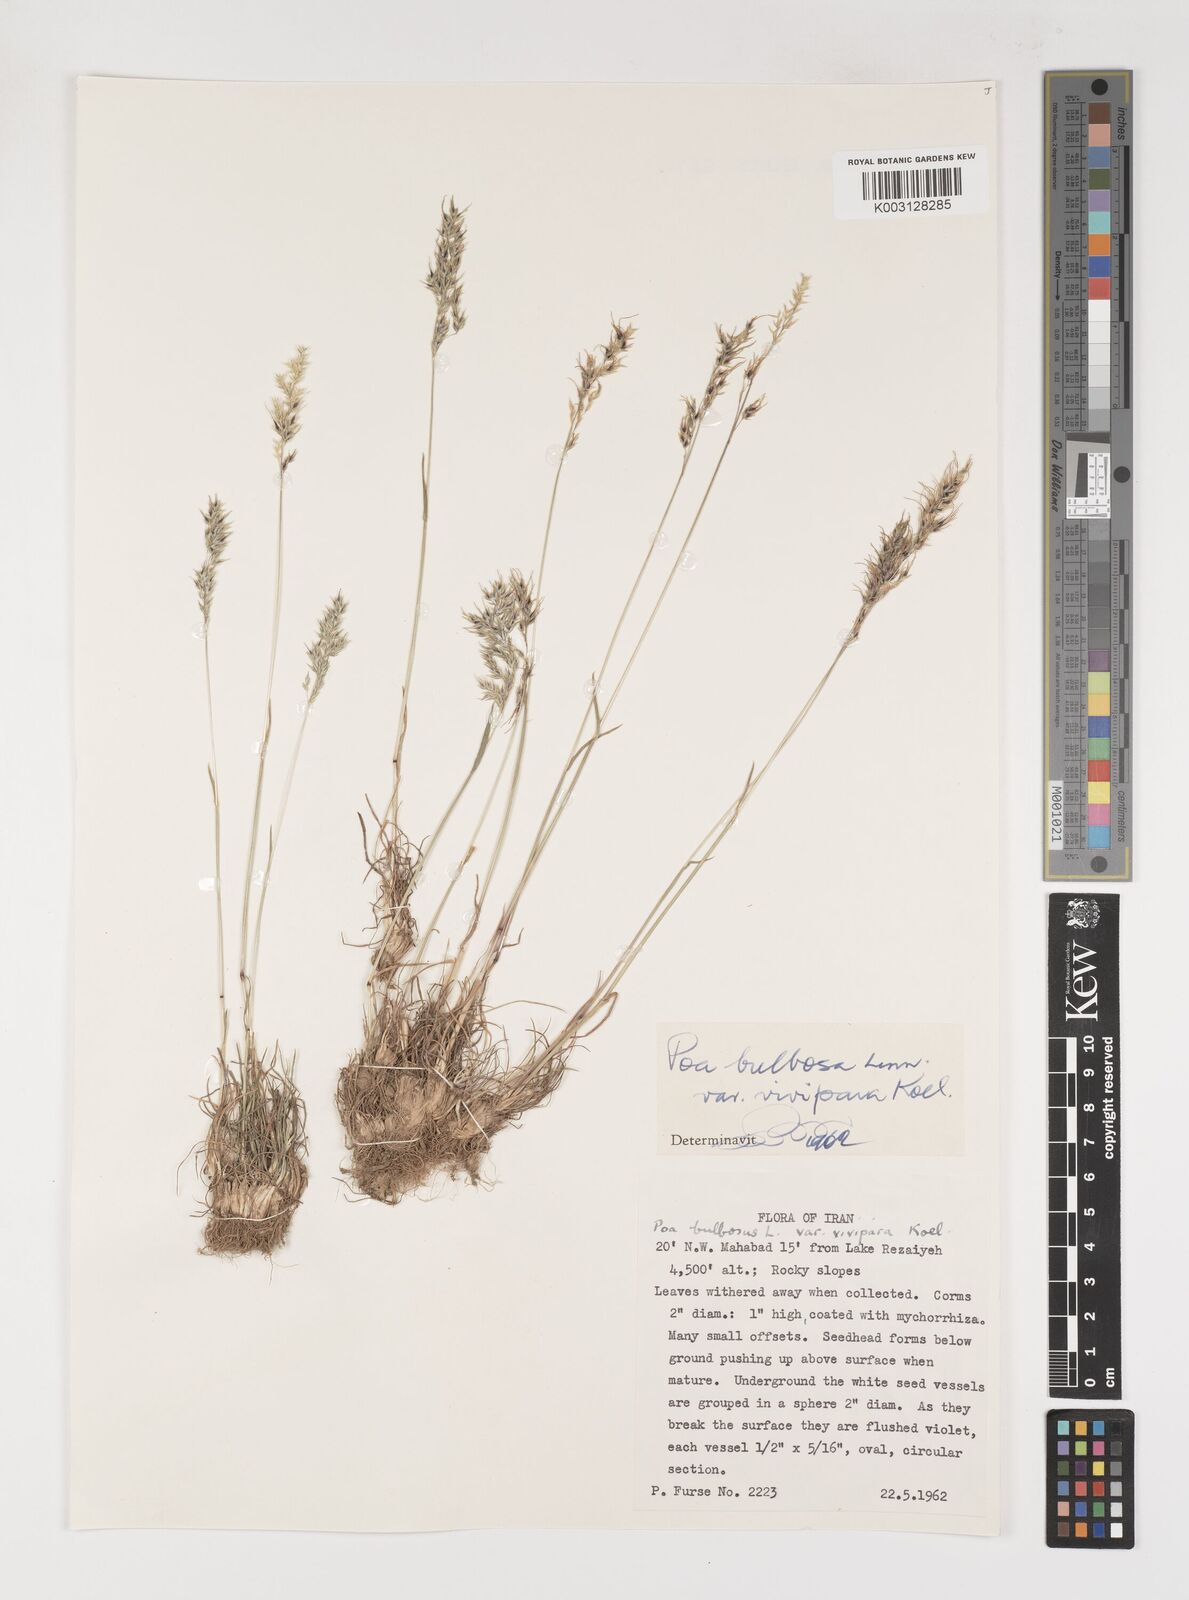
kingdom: Plantae
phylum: Tracheophyta
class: Liliopsida
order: Poales
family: Poaceae
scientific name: Poaceae
